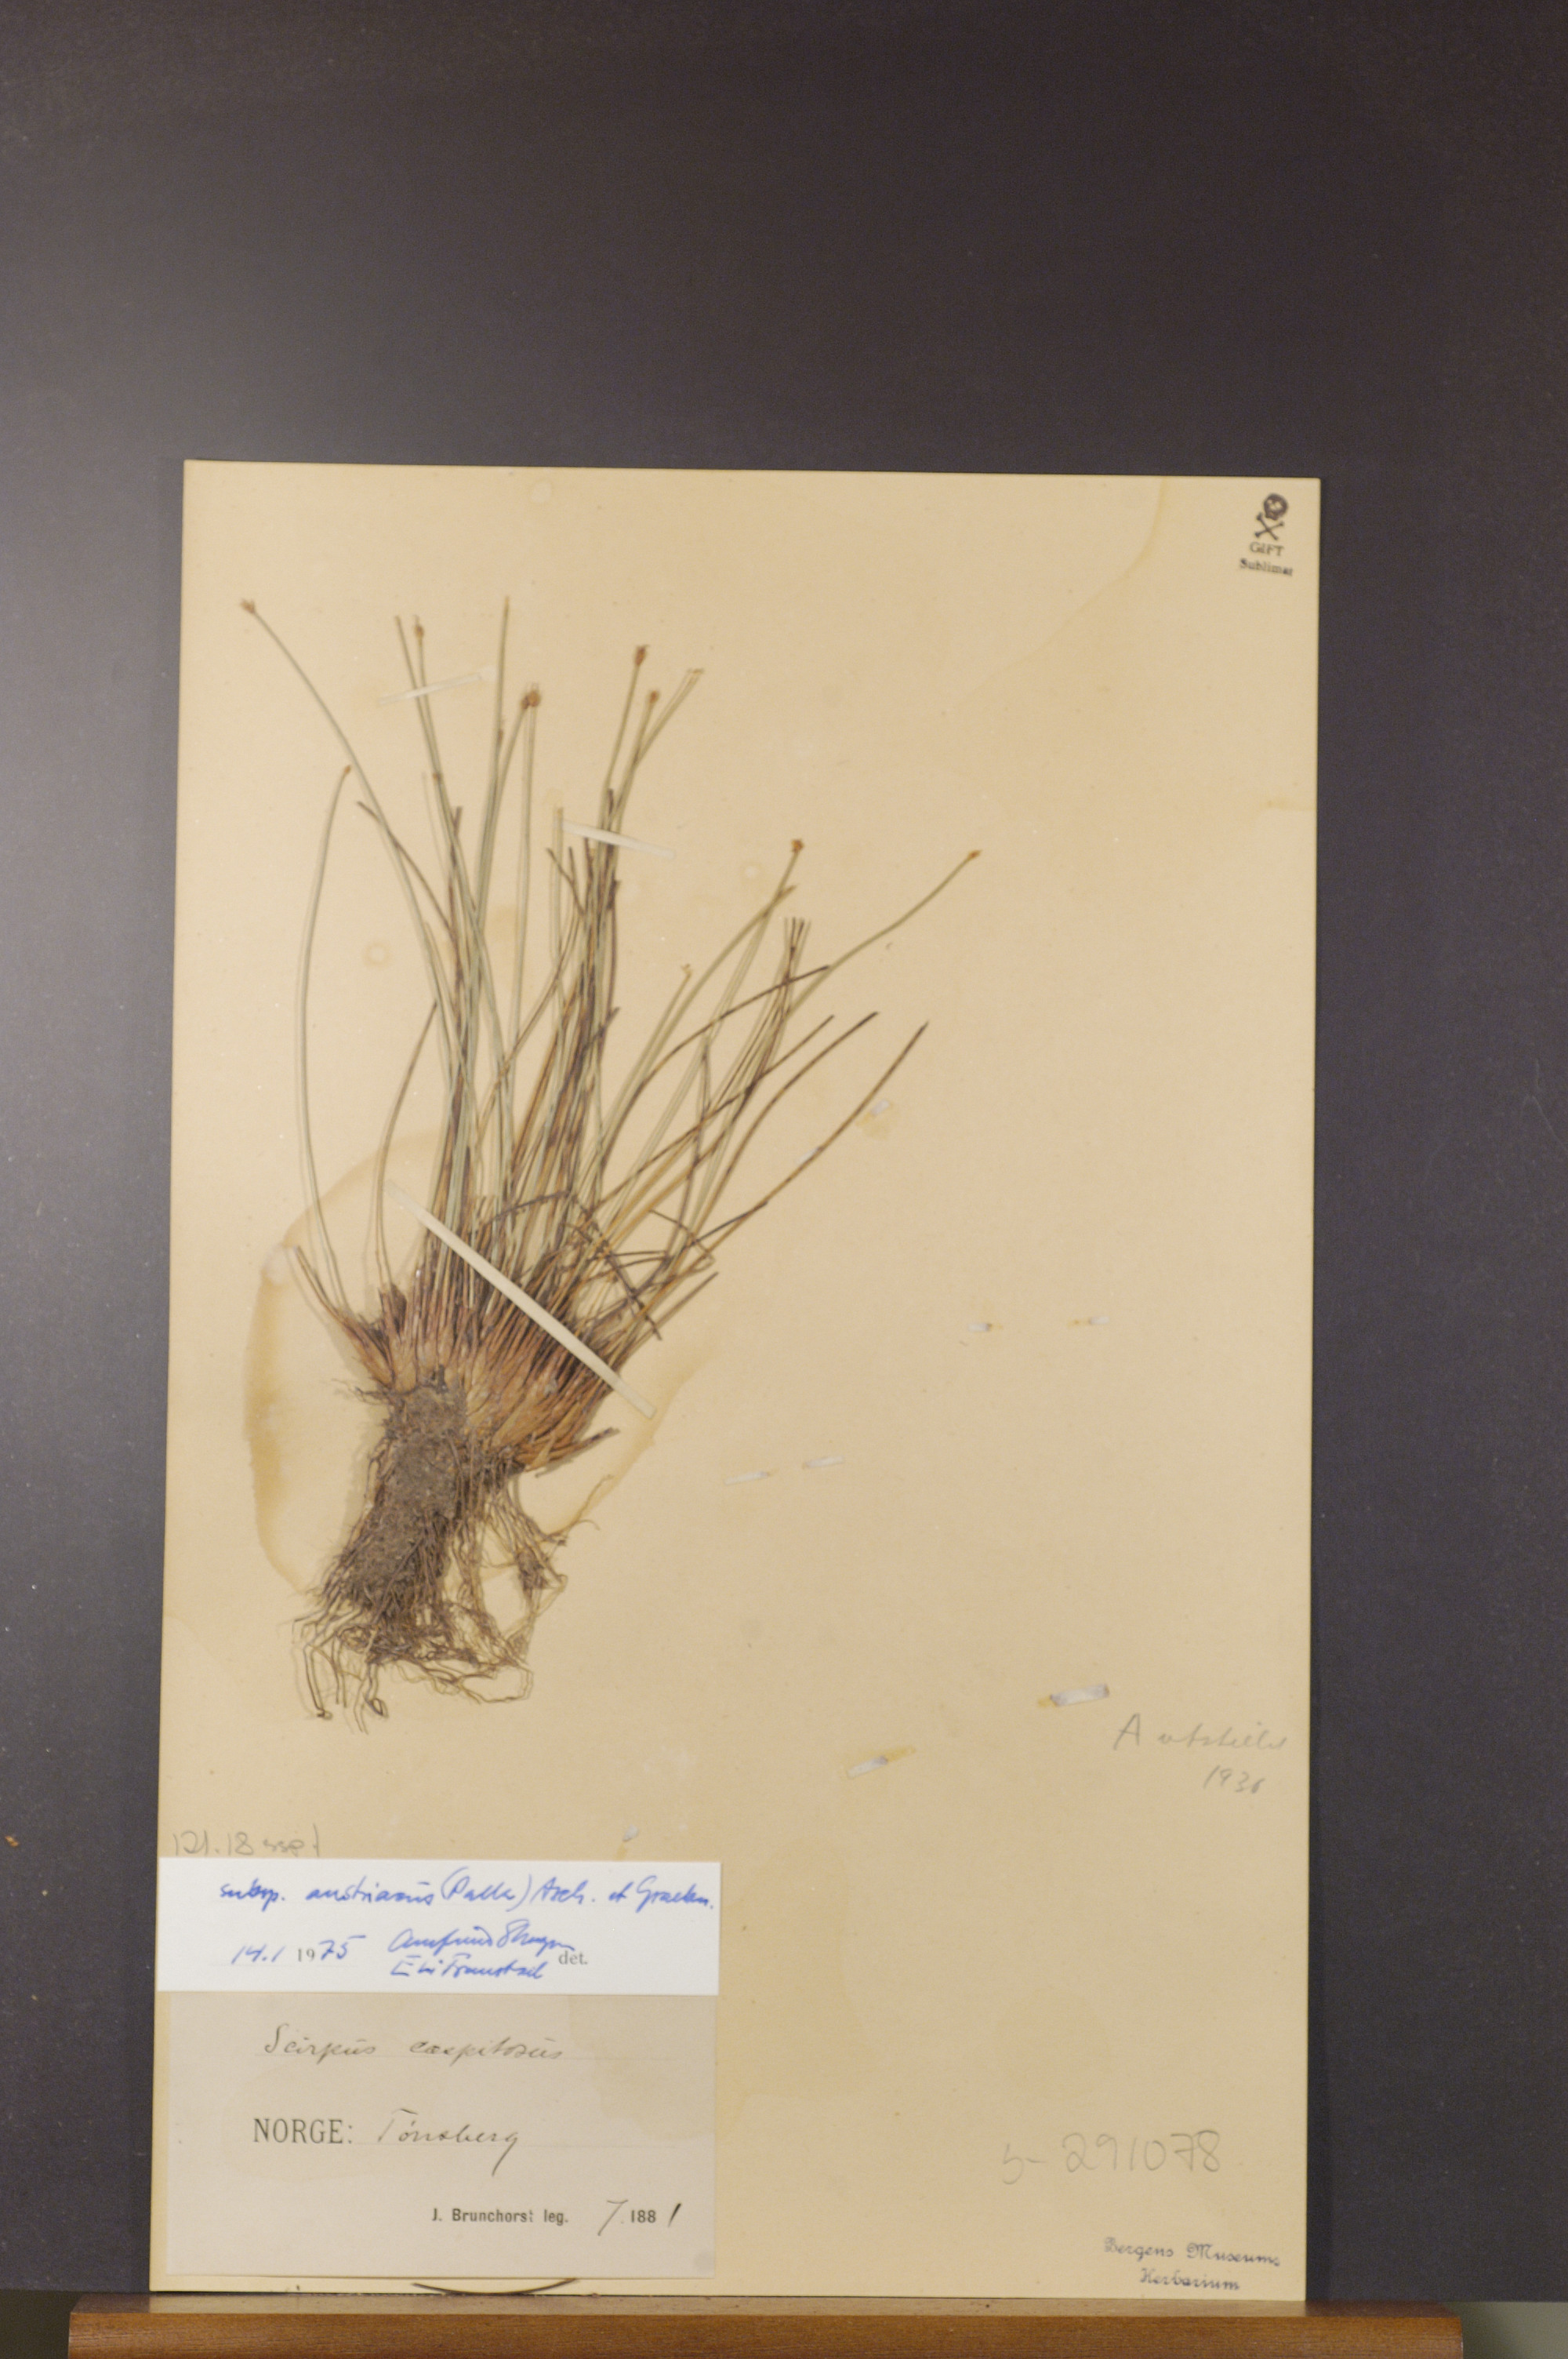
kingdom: Plantae
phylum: Tracheophyta
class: Liliopsida
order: Poales
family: Cyperaceae
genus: Trichophorum
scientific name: Trichophorum cespitosum
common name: Cespitose bulrush
